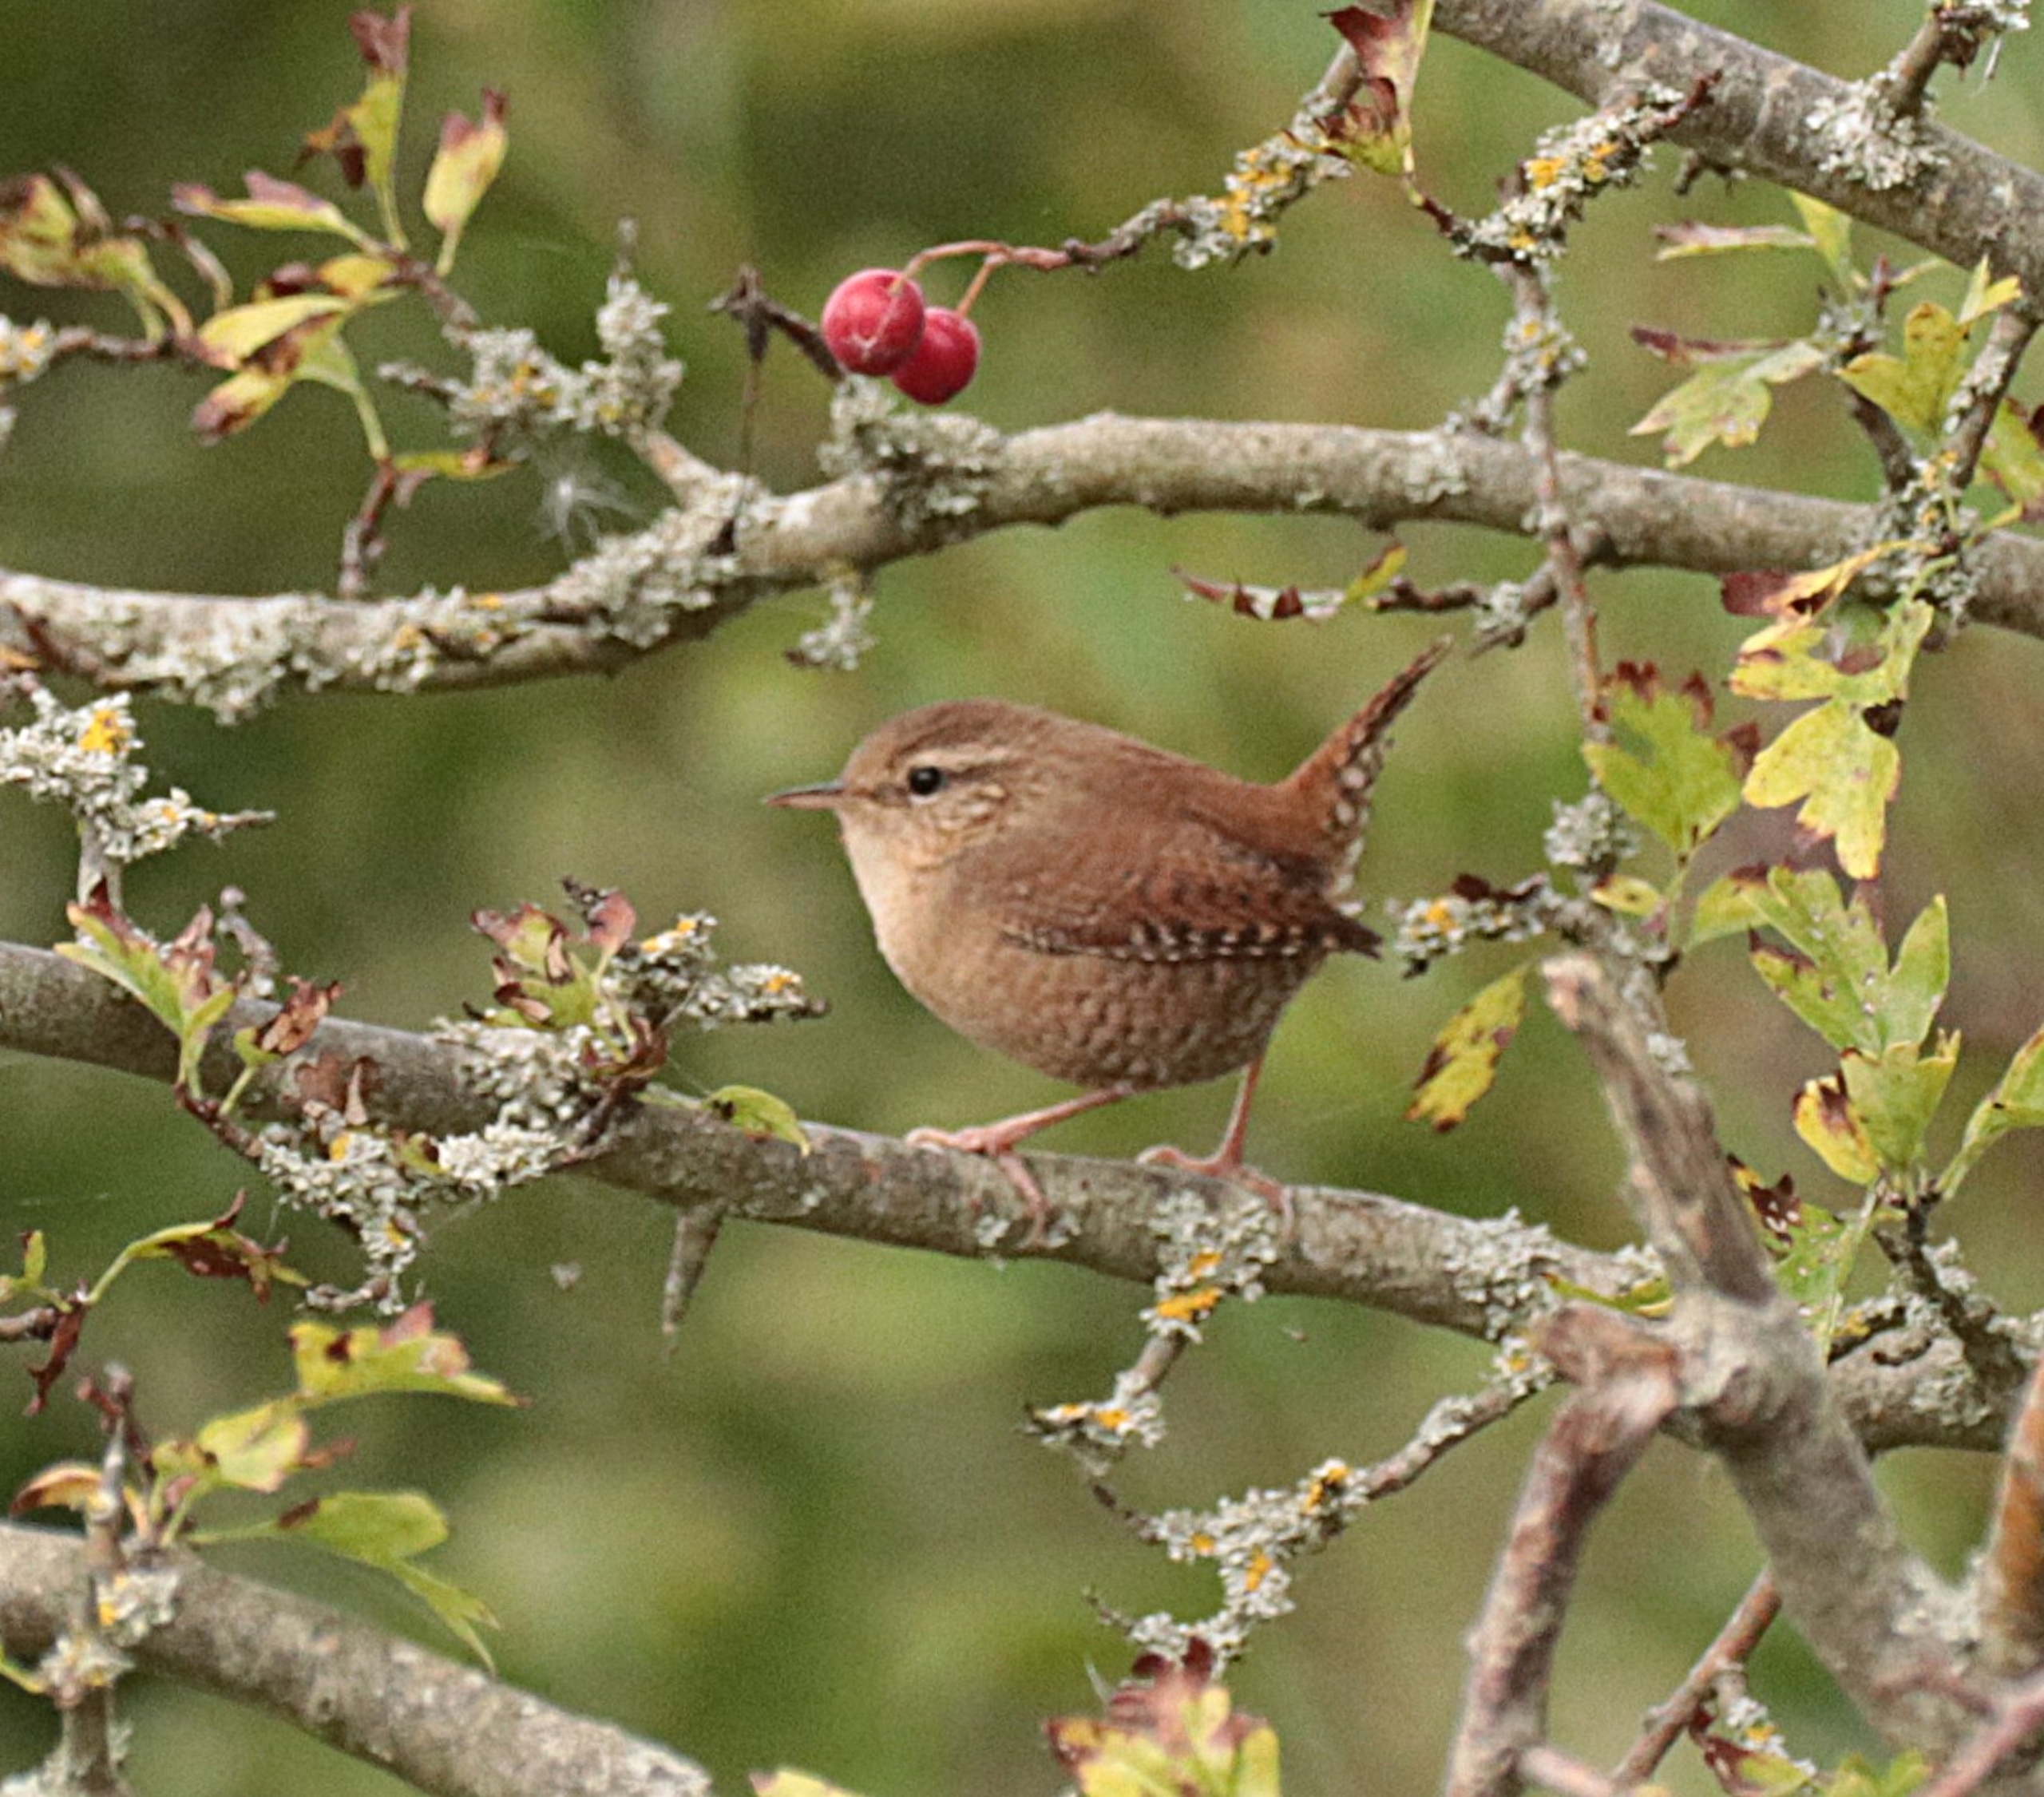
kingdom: Animalia
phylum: Chordata
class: Aves
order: Passeriformes
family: Troglodytidae
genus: Troglodytes
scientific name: Troglodytes troglodytes
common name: Gærdesmutte
